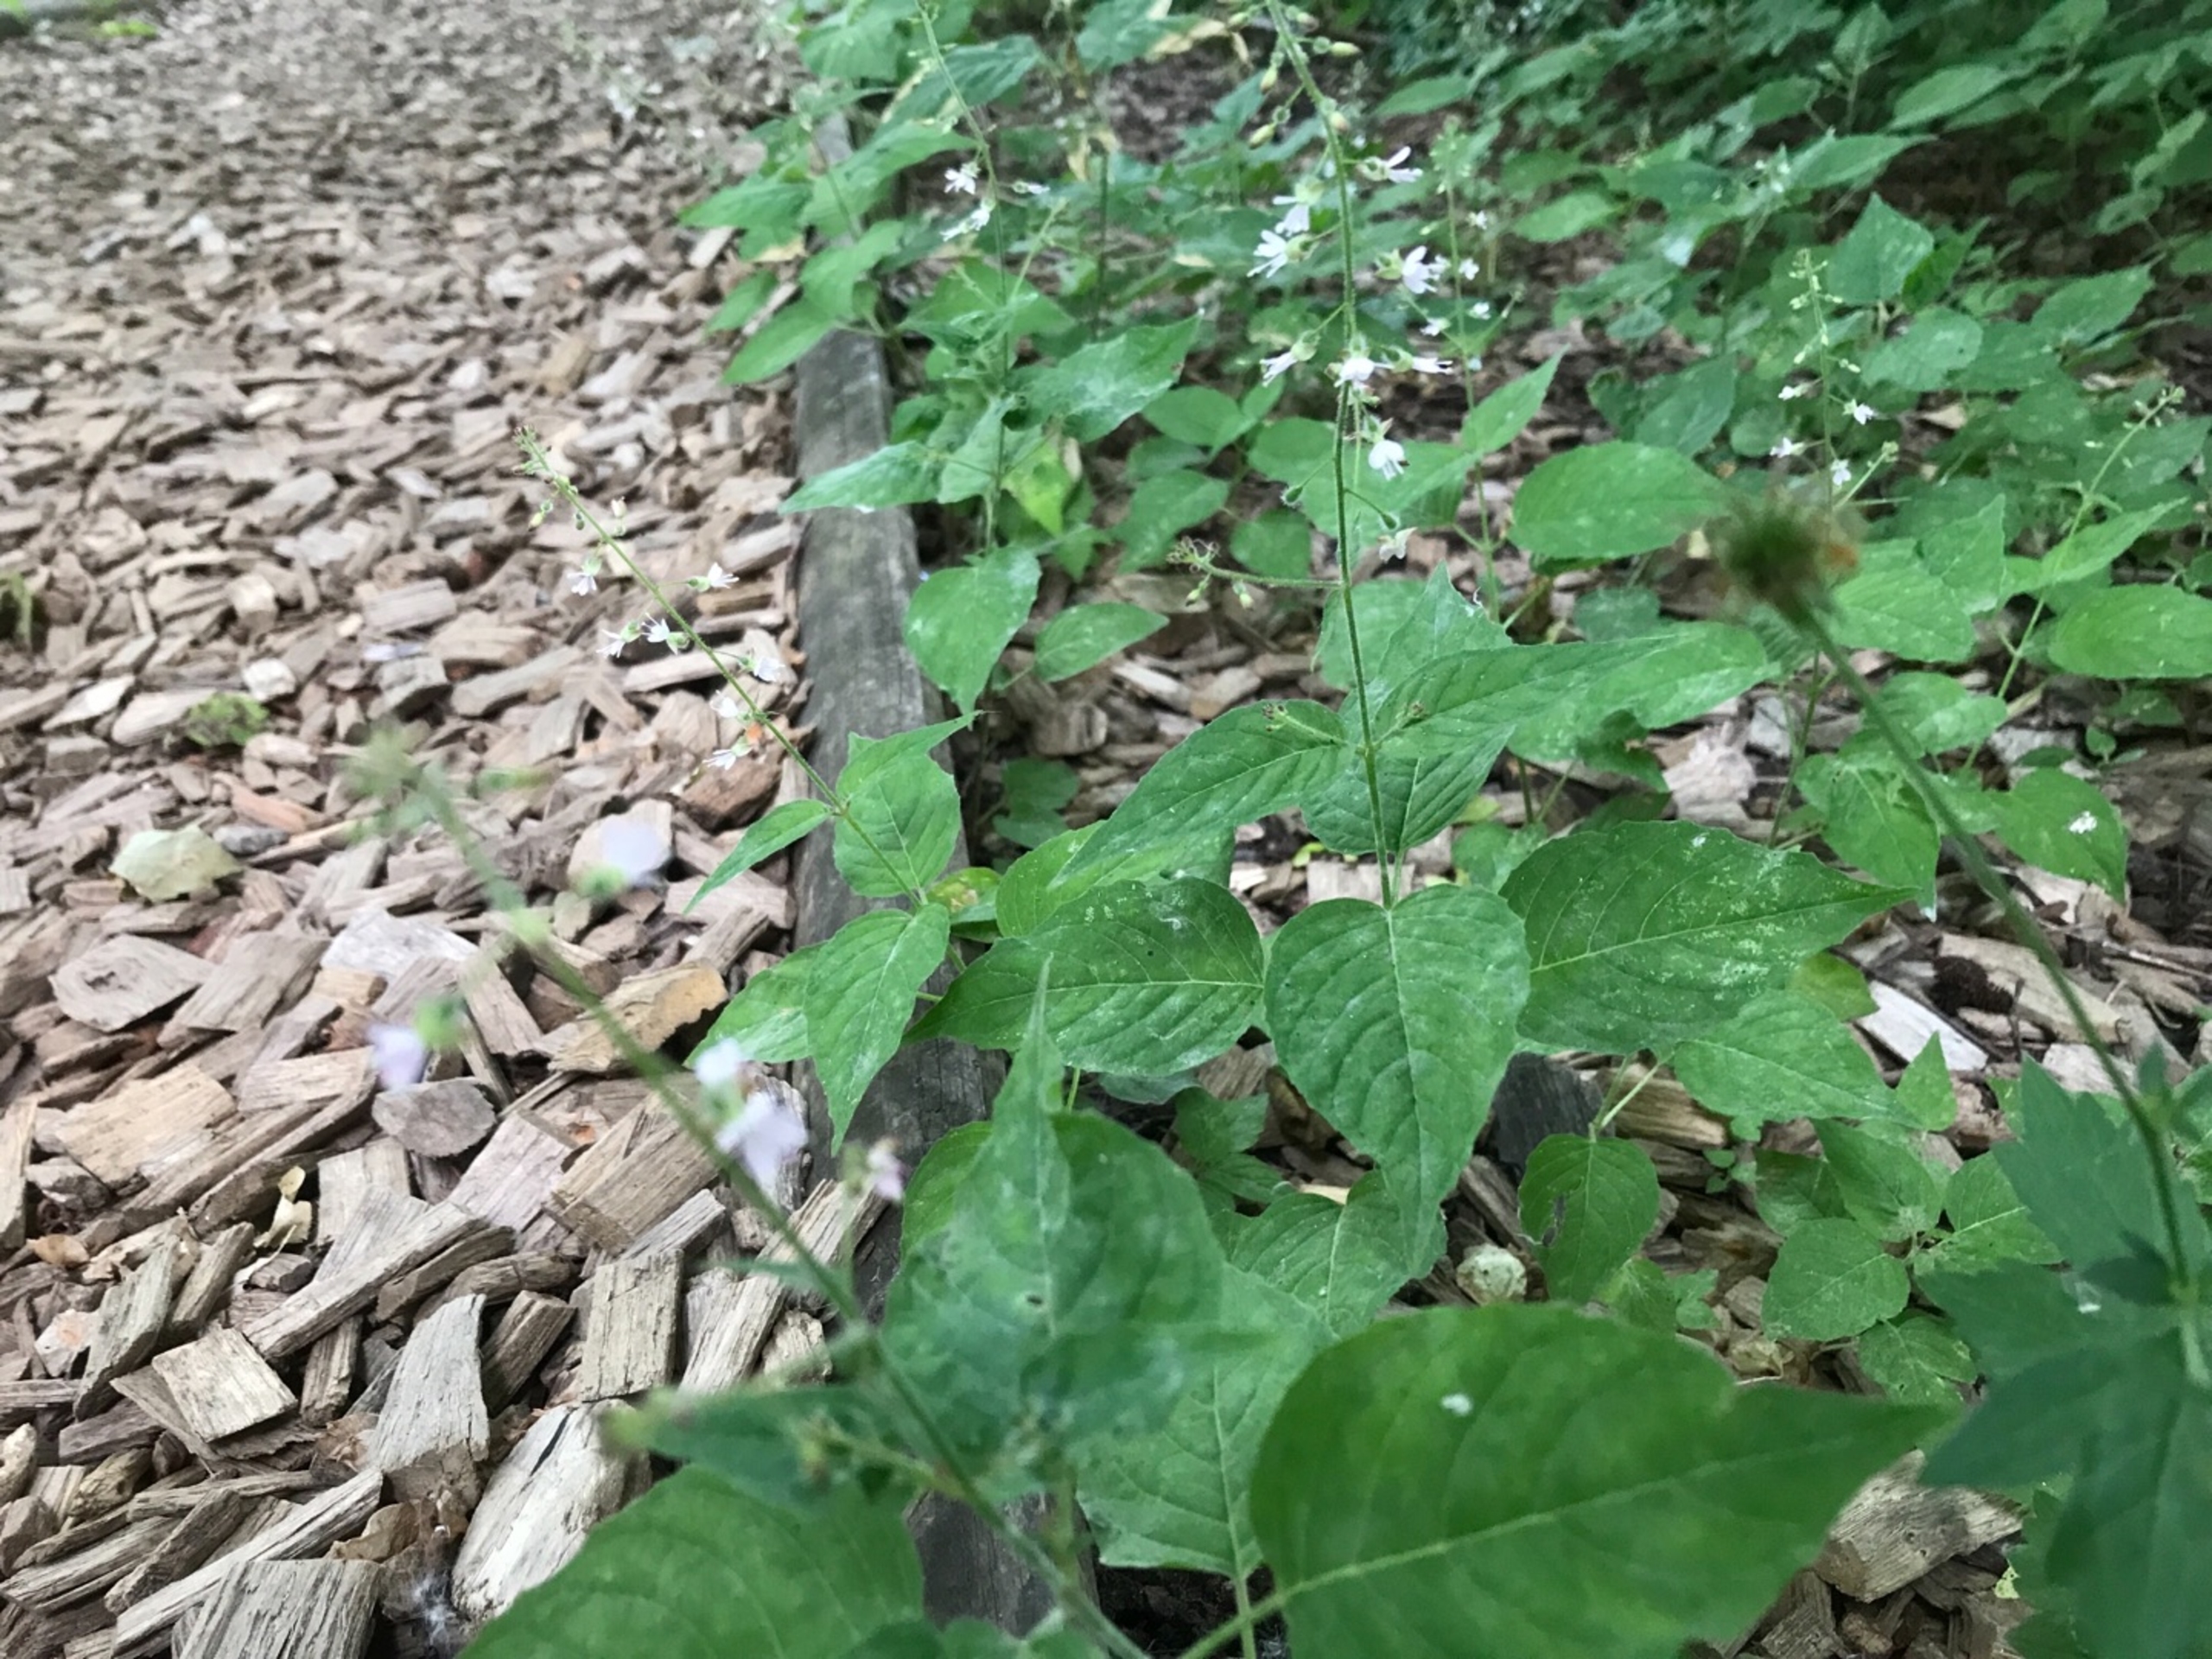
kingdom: Plantae
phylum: Tracheophyta
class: Magnoliopsida
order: Myrtales
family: Onagraceae
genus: Circaea
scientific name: Circaea lutetiana
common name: Dunet steffensurt
